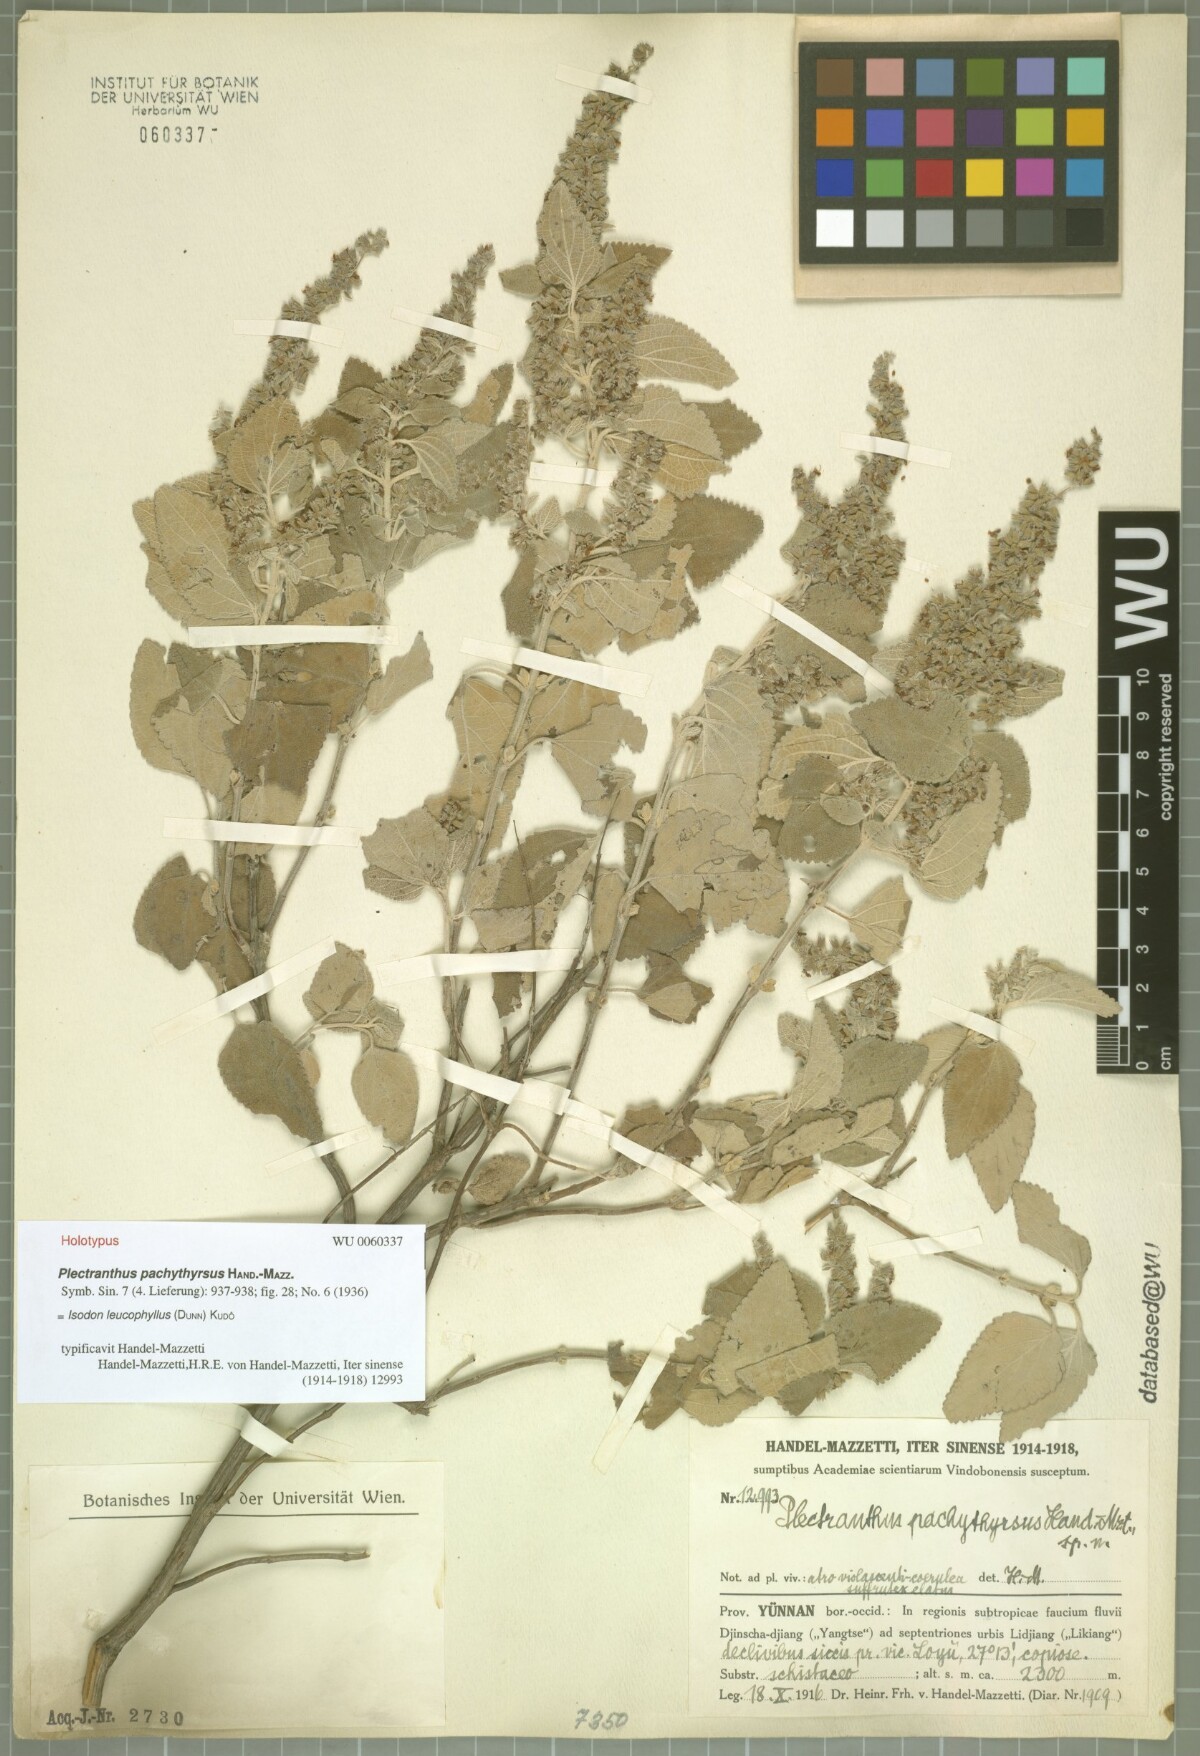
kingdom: Plantae
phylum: Tracheophyta
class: Magnoliopsida
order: Lamiales
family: Lamiaceae
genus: Isodon
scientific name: Isodon leucophyllus
